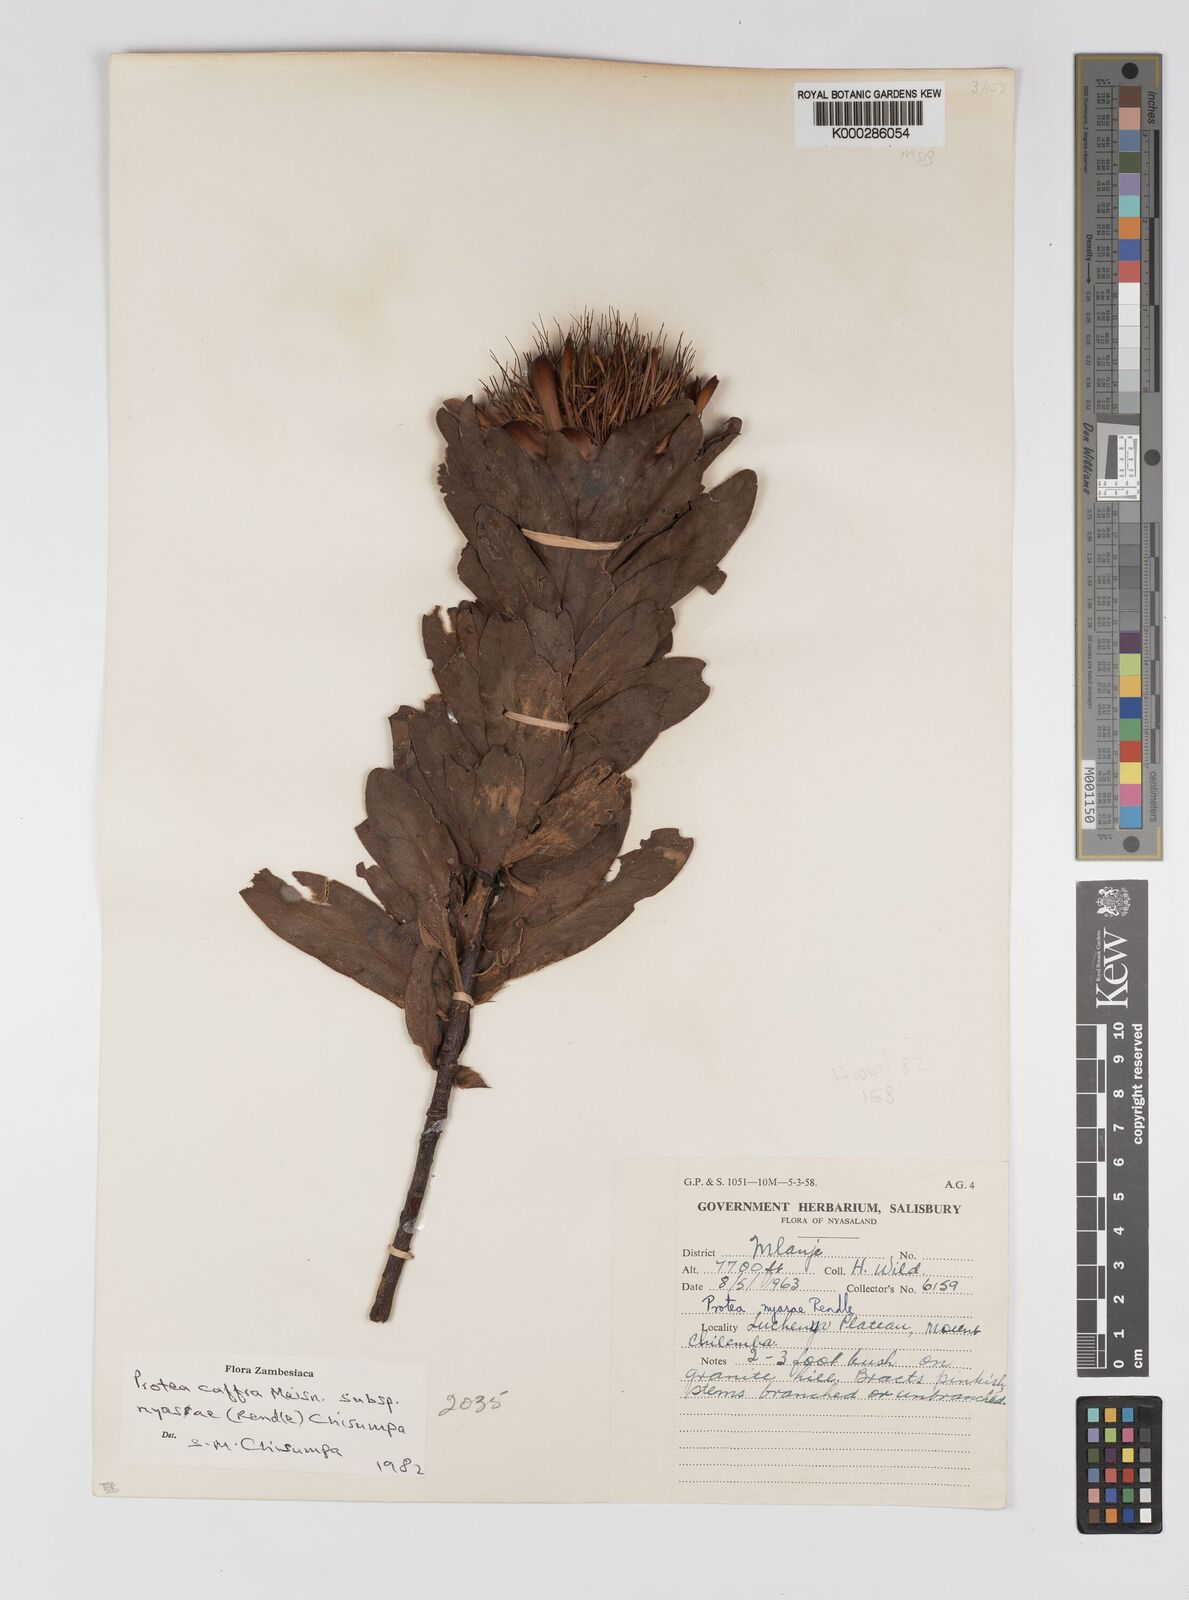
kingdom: Plantae
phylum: Tracheophyta
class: Magnoliopsida
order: Proteales
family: Proteaceae
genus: Protea
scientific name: Protea caffra
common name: Common sugarbush
